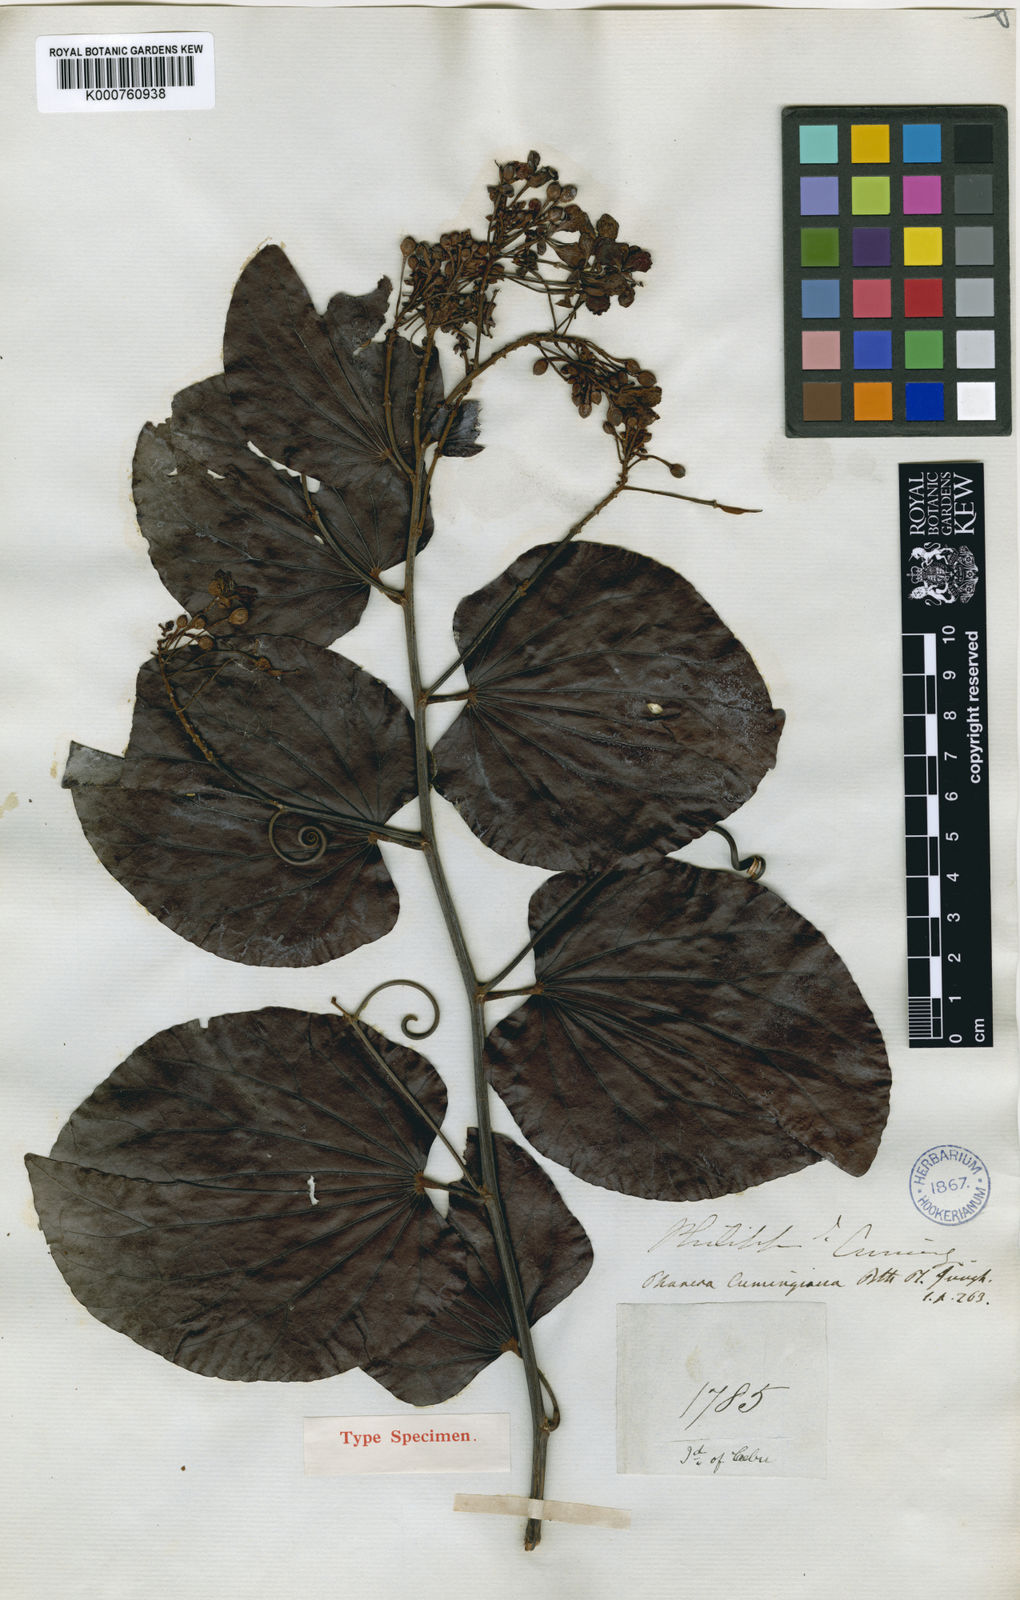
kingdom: Plantae
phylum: Tracheophyta
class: Magnoliopsida
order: Fabales
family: Fabaceae
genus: Phanera
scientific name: Phanera integrifolia
